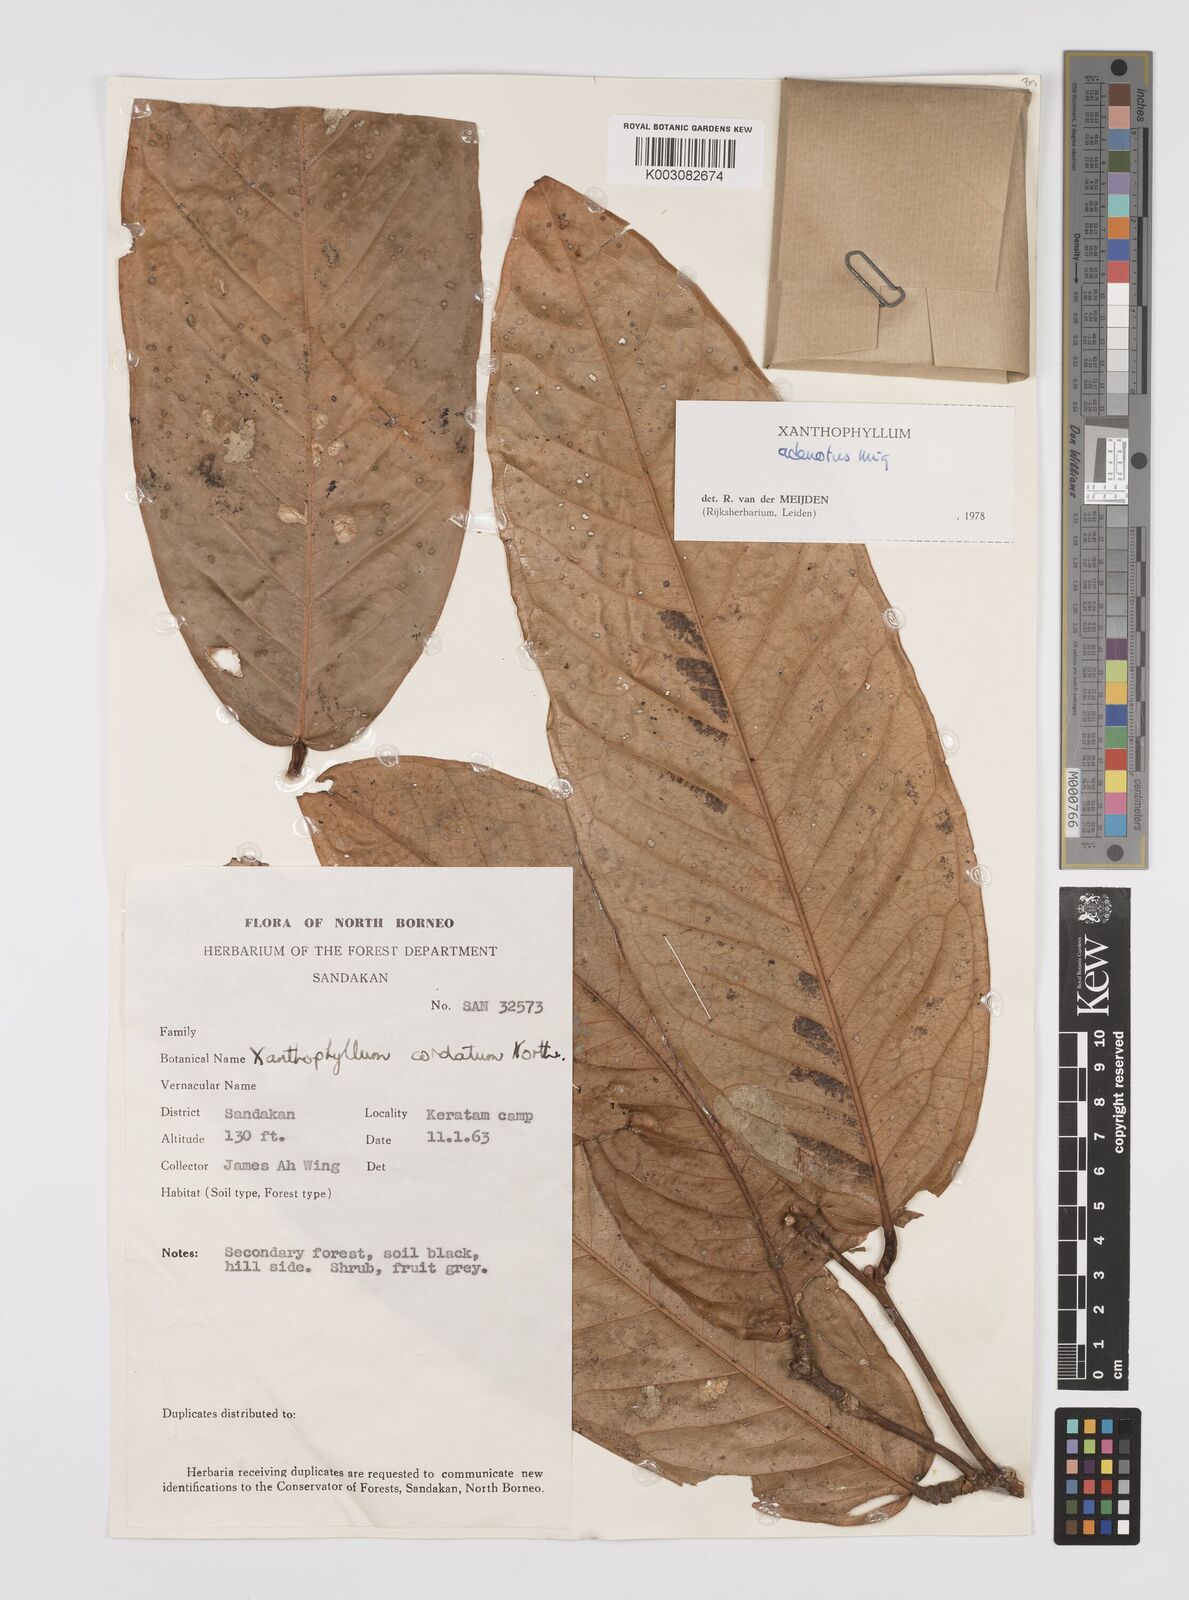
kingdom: Plantae
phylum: Tracheophyta
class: Magnoliopsida
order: Fabales
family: Polygalaceae
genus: Xanthophyllum
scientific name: Xanthophyllum adenotus
